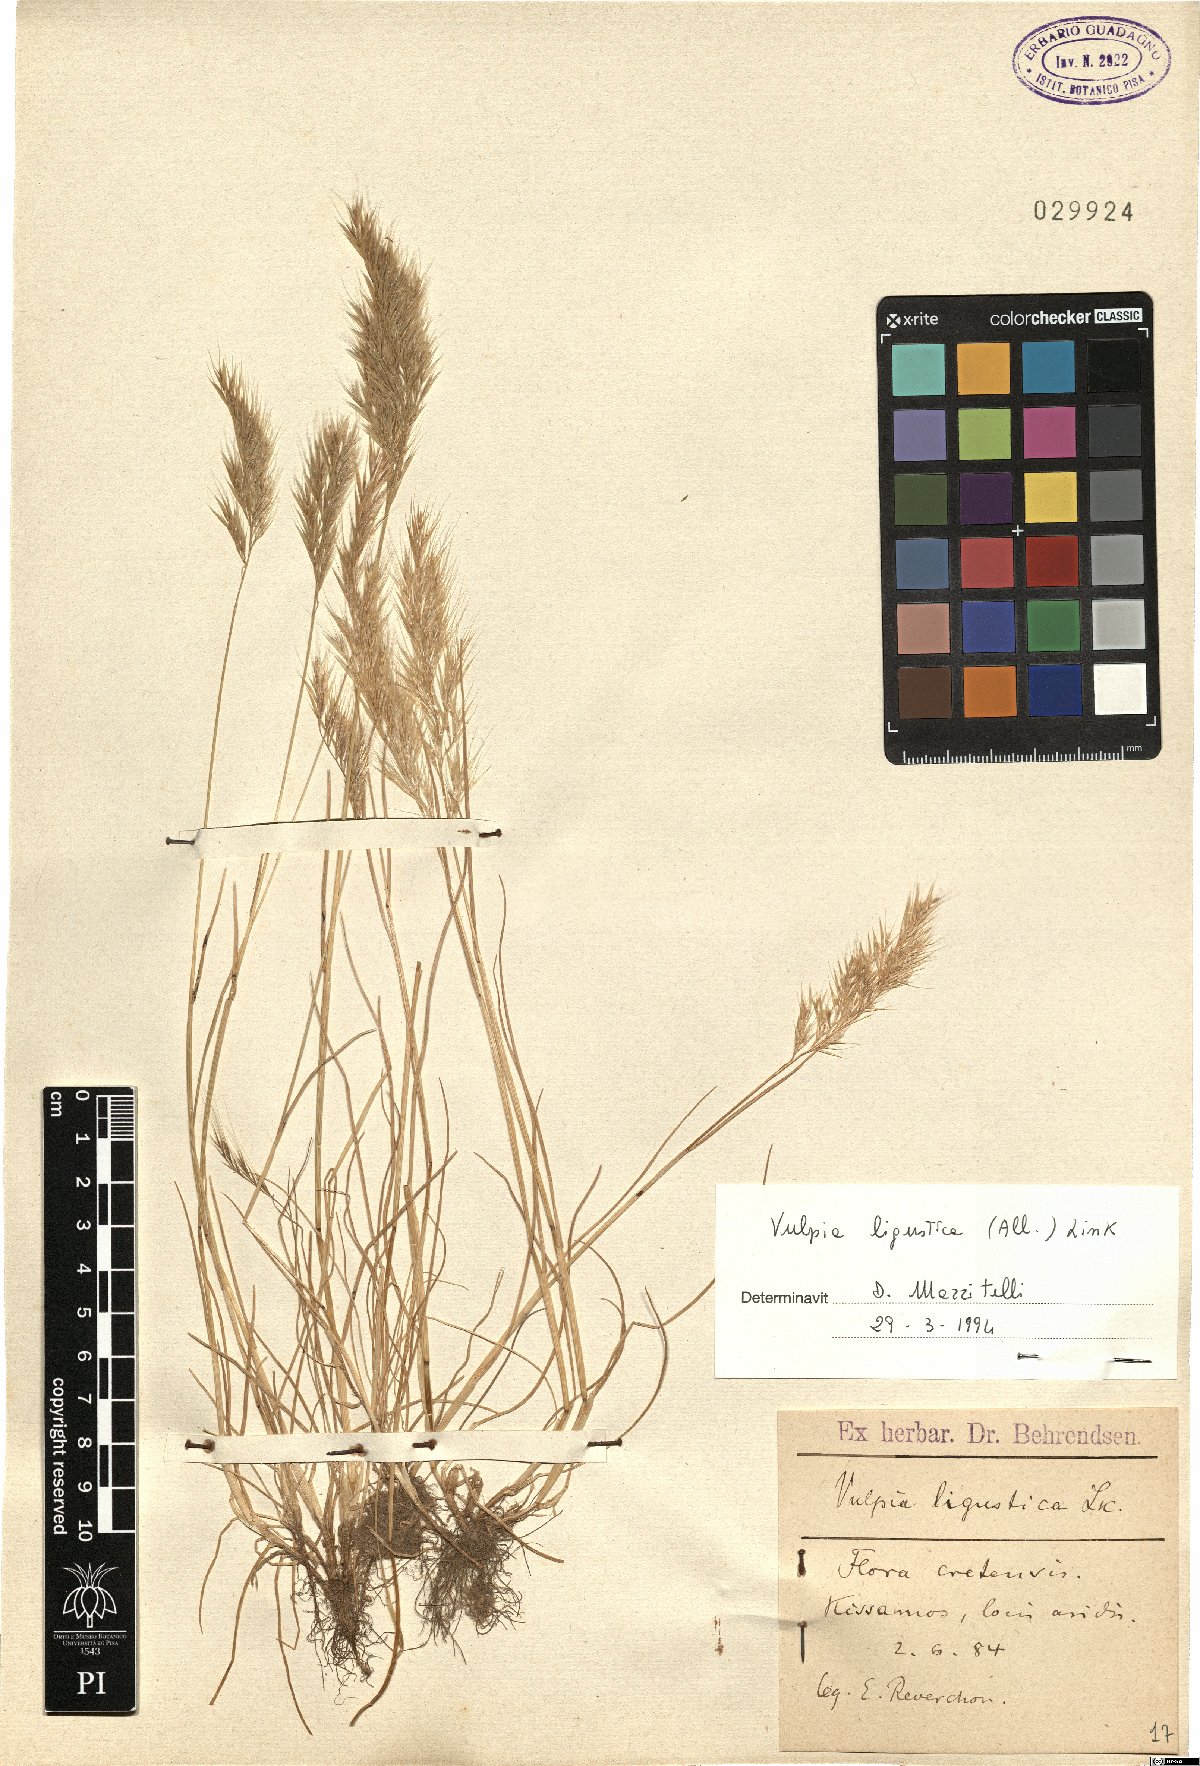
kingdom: Plantae
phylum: Tracheophyta
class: Liliopsida
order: Poales
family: Poaceae
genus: Festuca
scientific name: Festuca ligustica
